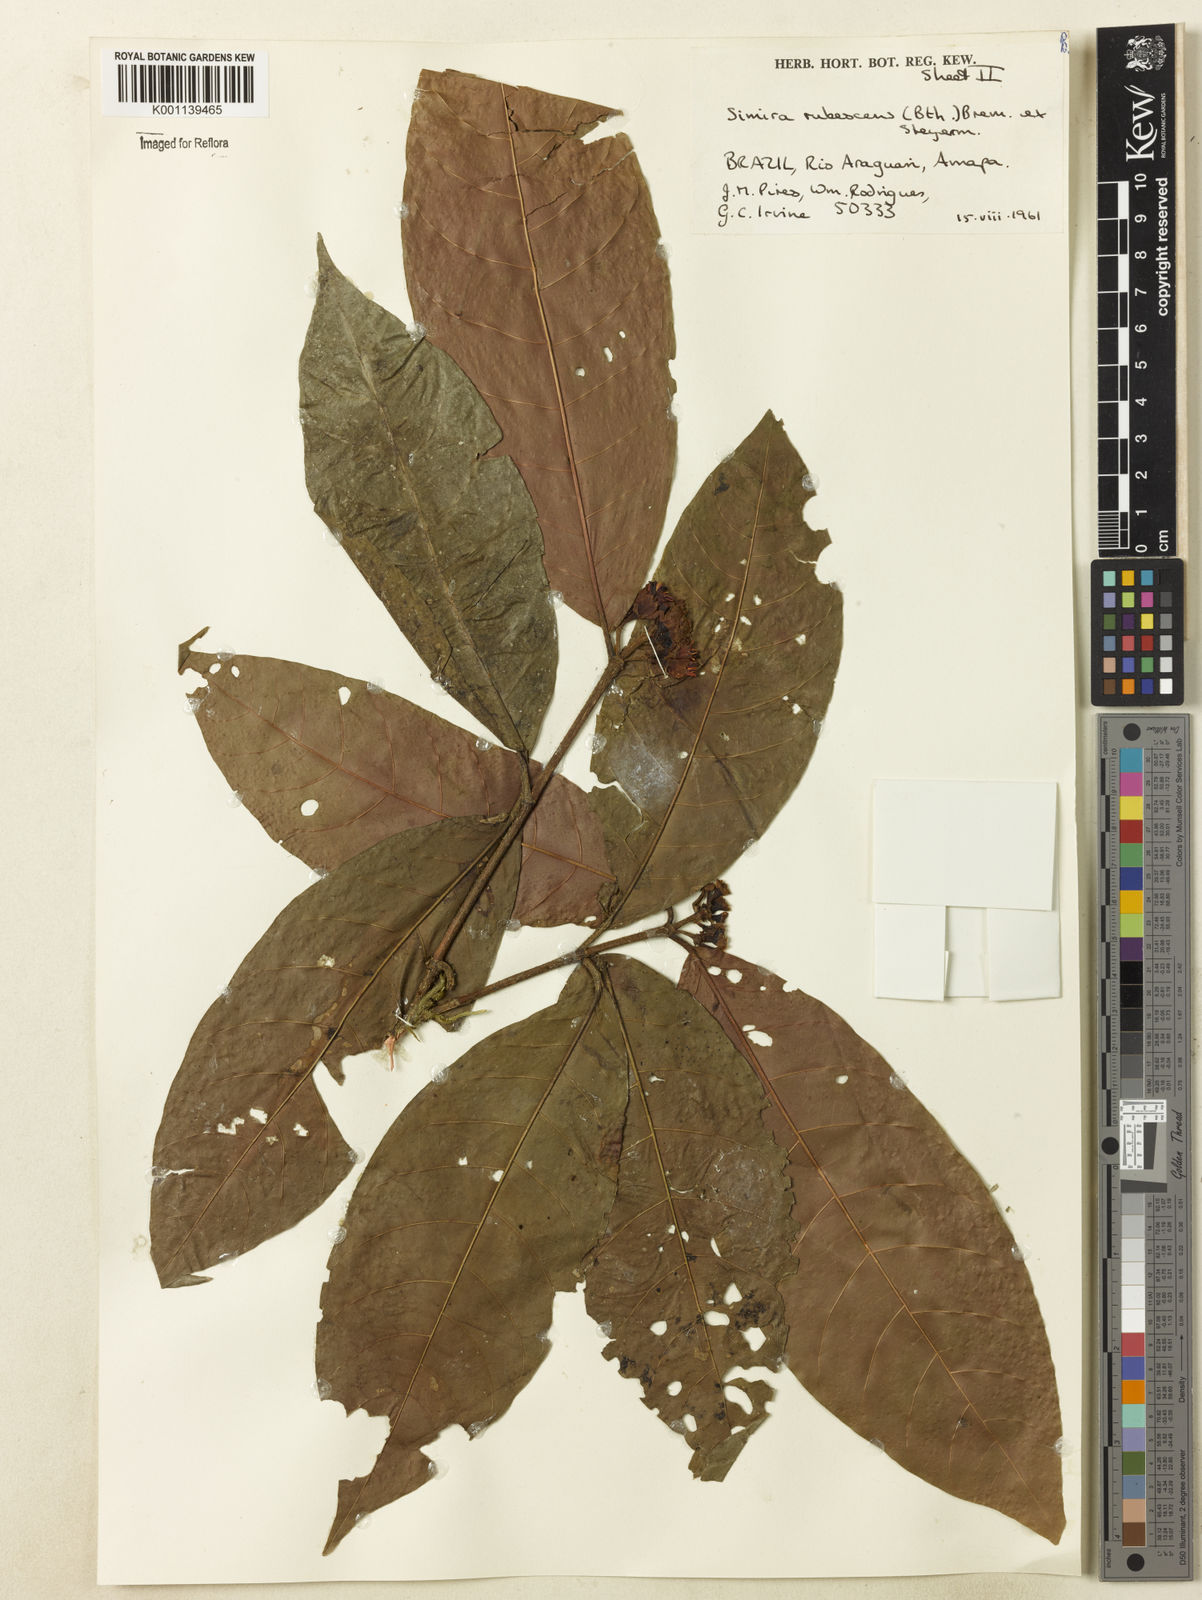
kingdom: Plantae
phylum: Tracheophyta
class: Magnoliopsida
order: Gentianales
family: Rubiaceae
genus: Simira
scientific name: Simira rubescens
